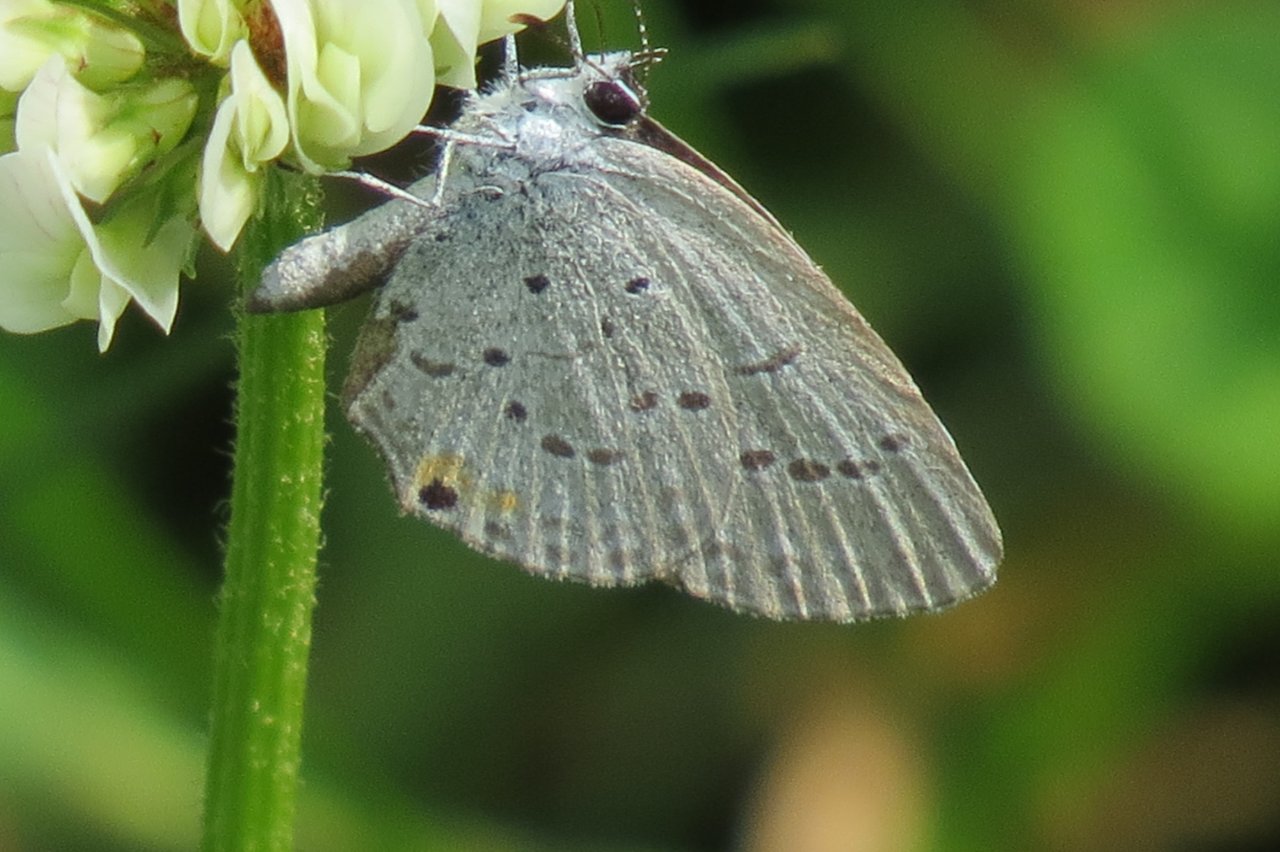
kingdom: Animalia
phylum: Arthropoda
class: Insecta
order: Lepidoptera
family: Lycaenidae
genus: Elkalyce
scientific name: Elkalyce comyntas
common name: Eastern Tailed-Blue
